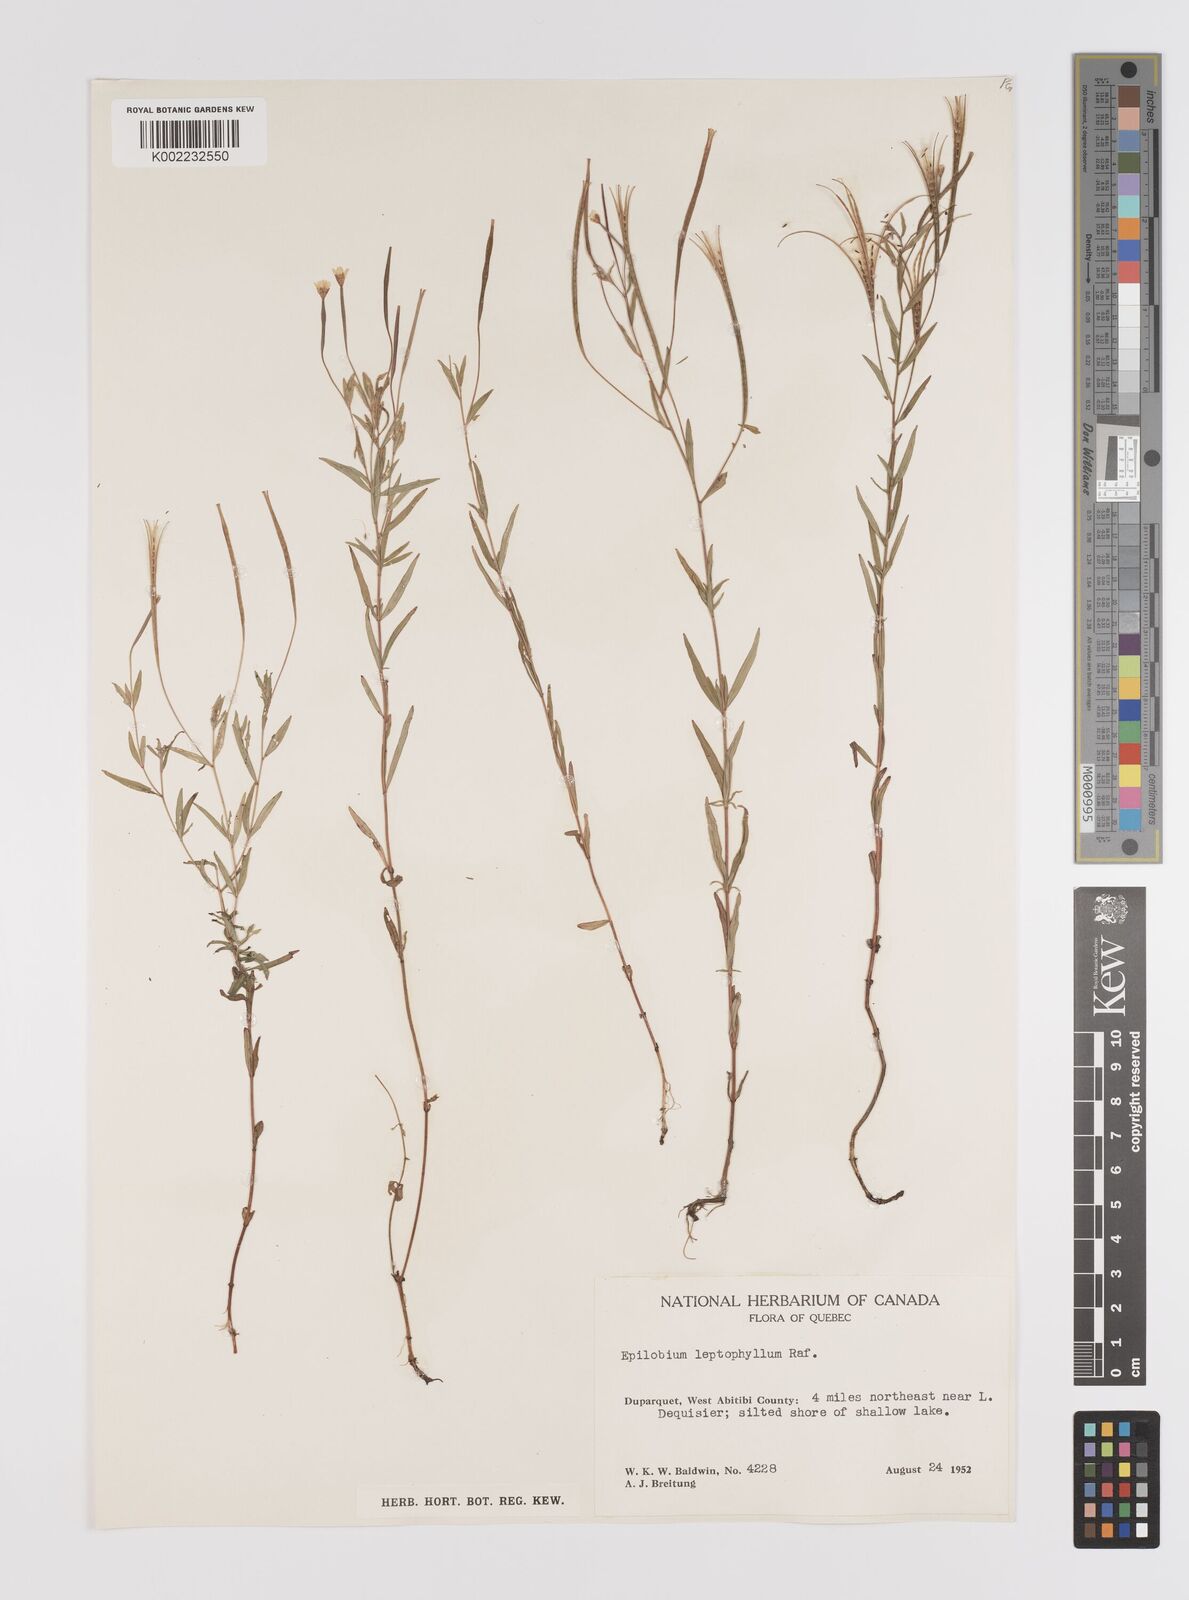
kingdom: Plantae
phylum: Tracheophyta
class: Magnoliopsida
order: Myrtales
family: Onagraceae
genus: Epilobium
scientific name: Epilobium palustre
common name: Marsh willowherb
